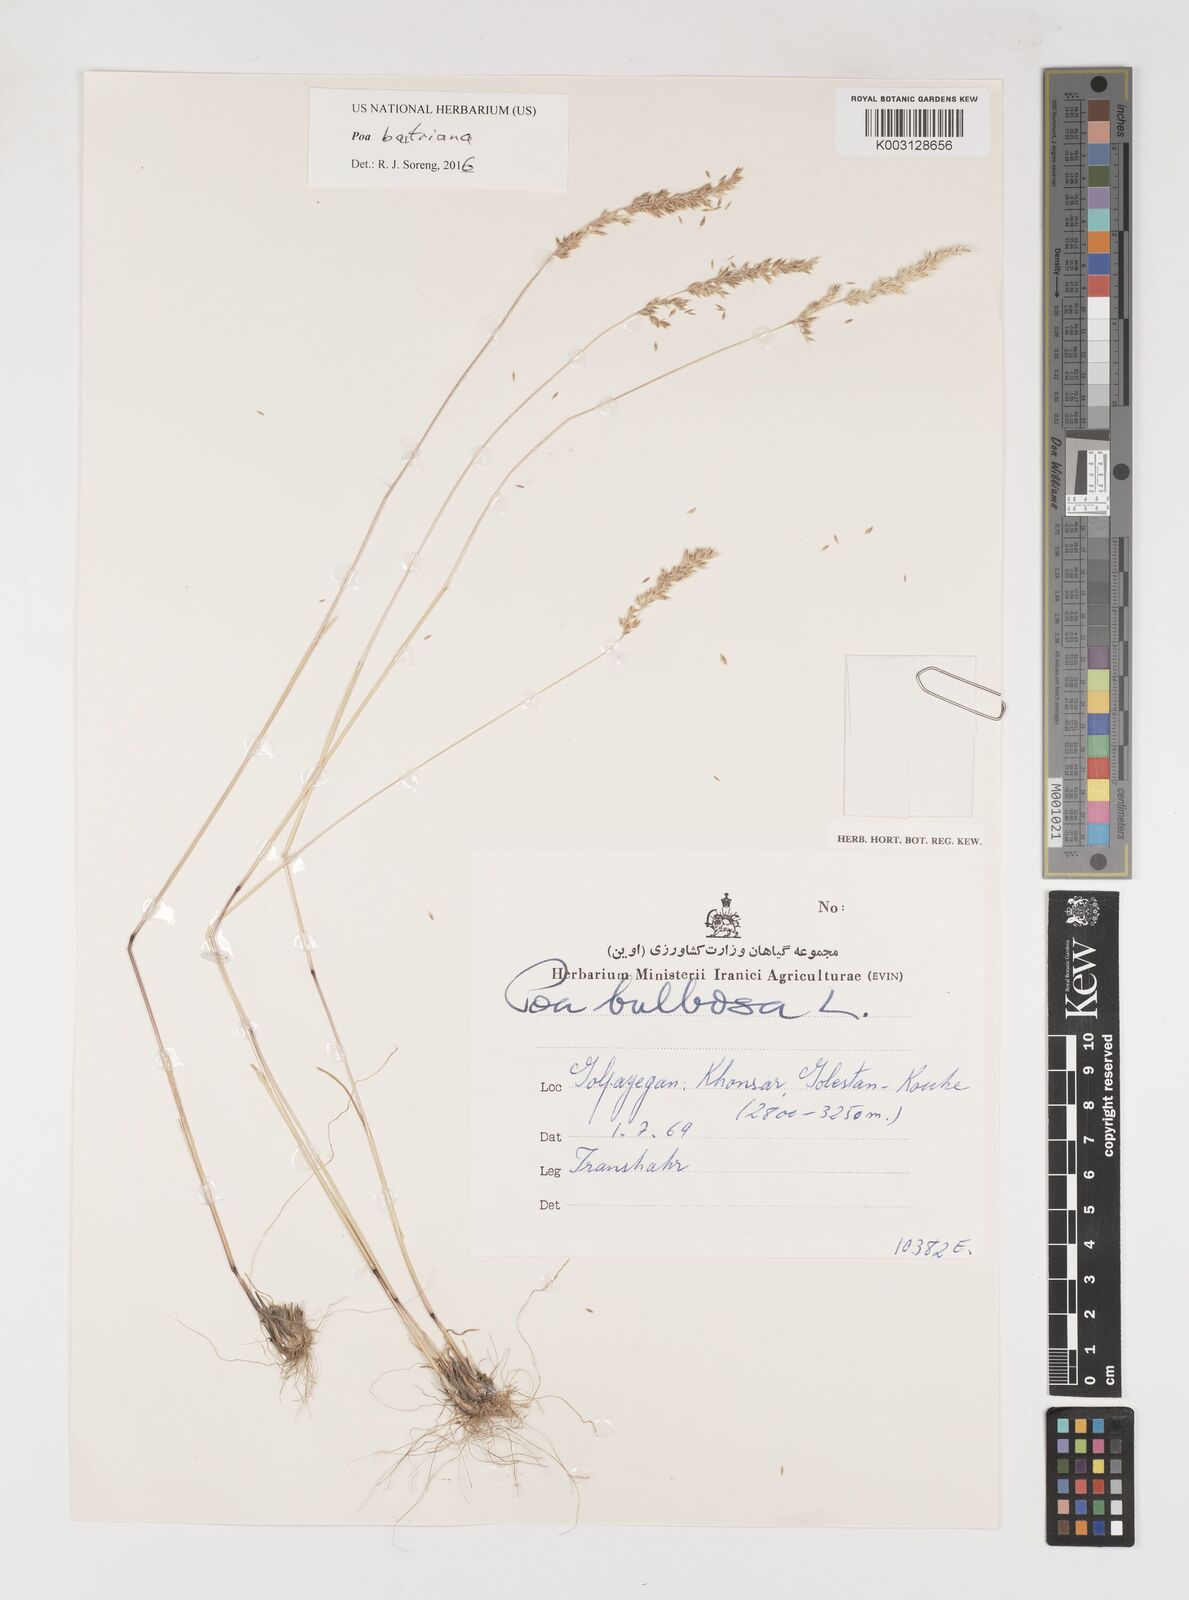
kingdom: Plantae
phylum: Tracheophyta
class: Liliopsida
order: Poales
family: Poaceae
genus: Poa
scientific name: Poa bactriana
